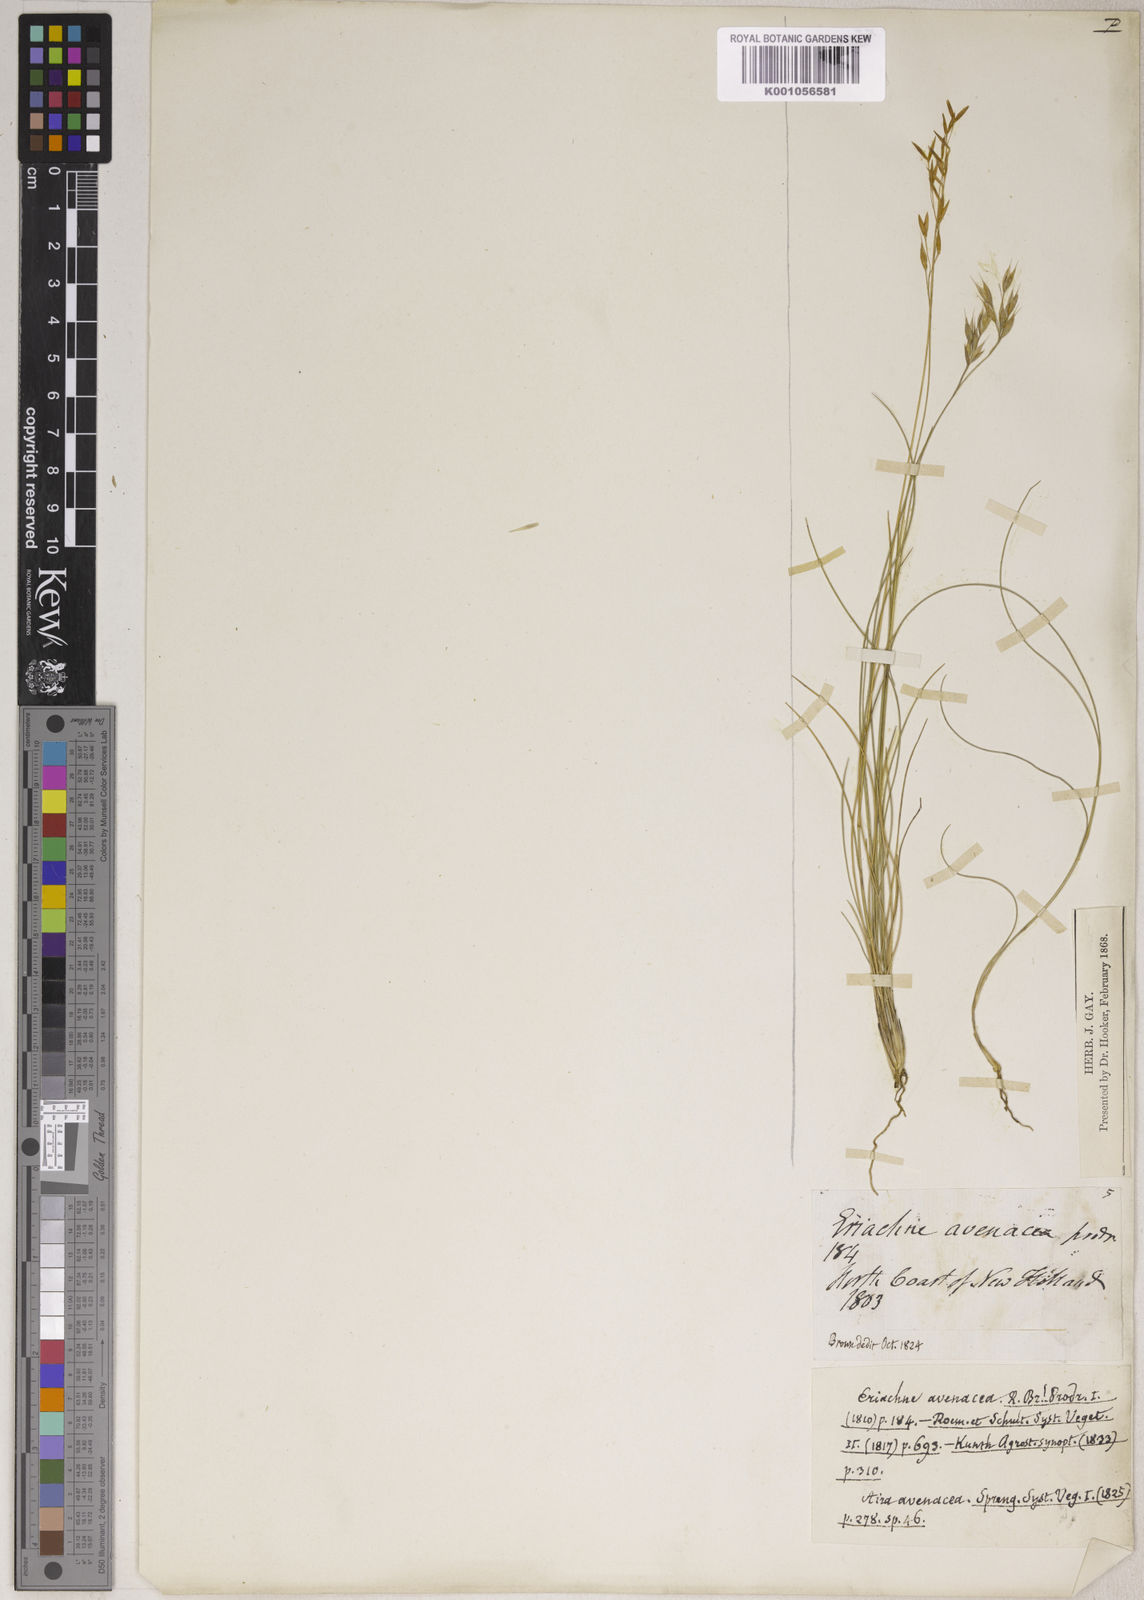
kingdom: Plantae
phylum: Tracheophyta
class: Liliopsida
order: Poales
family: Poaceae
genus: Eriachne
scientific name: Eriachne avenacea
